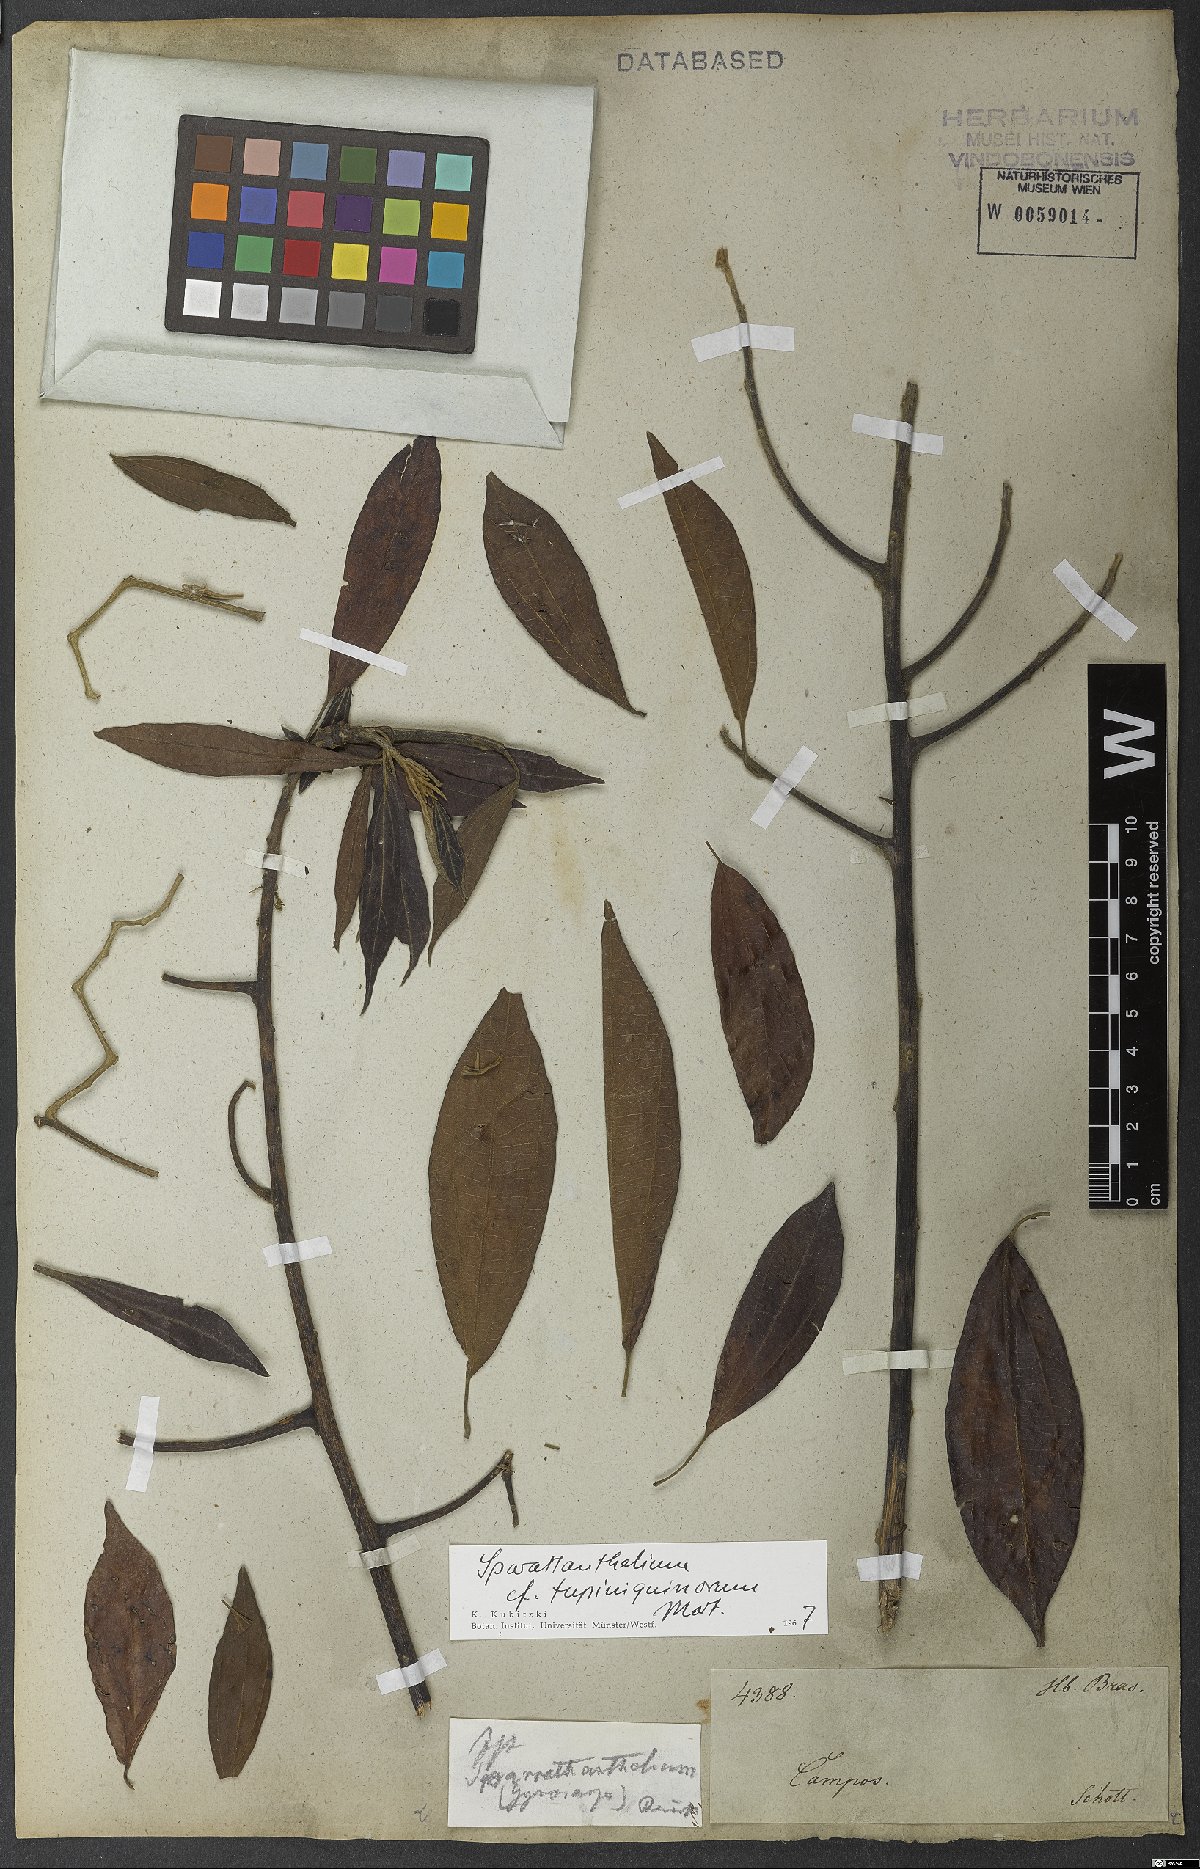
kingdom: Plantae
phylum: Tracheophyta
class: Magnoliopsida
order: Laurales
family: Hernandiaceae
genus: Sparattanthelium
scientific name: Sparattanthelium tupiniquinorum
